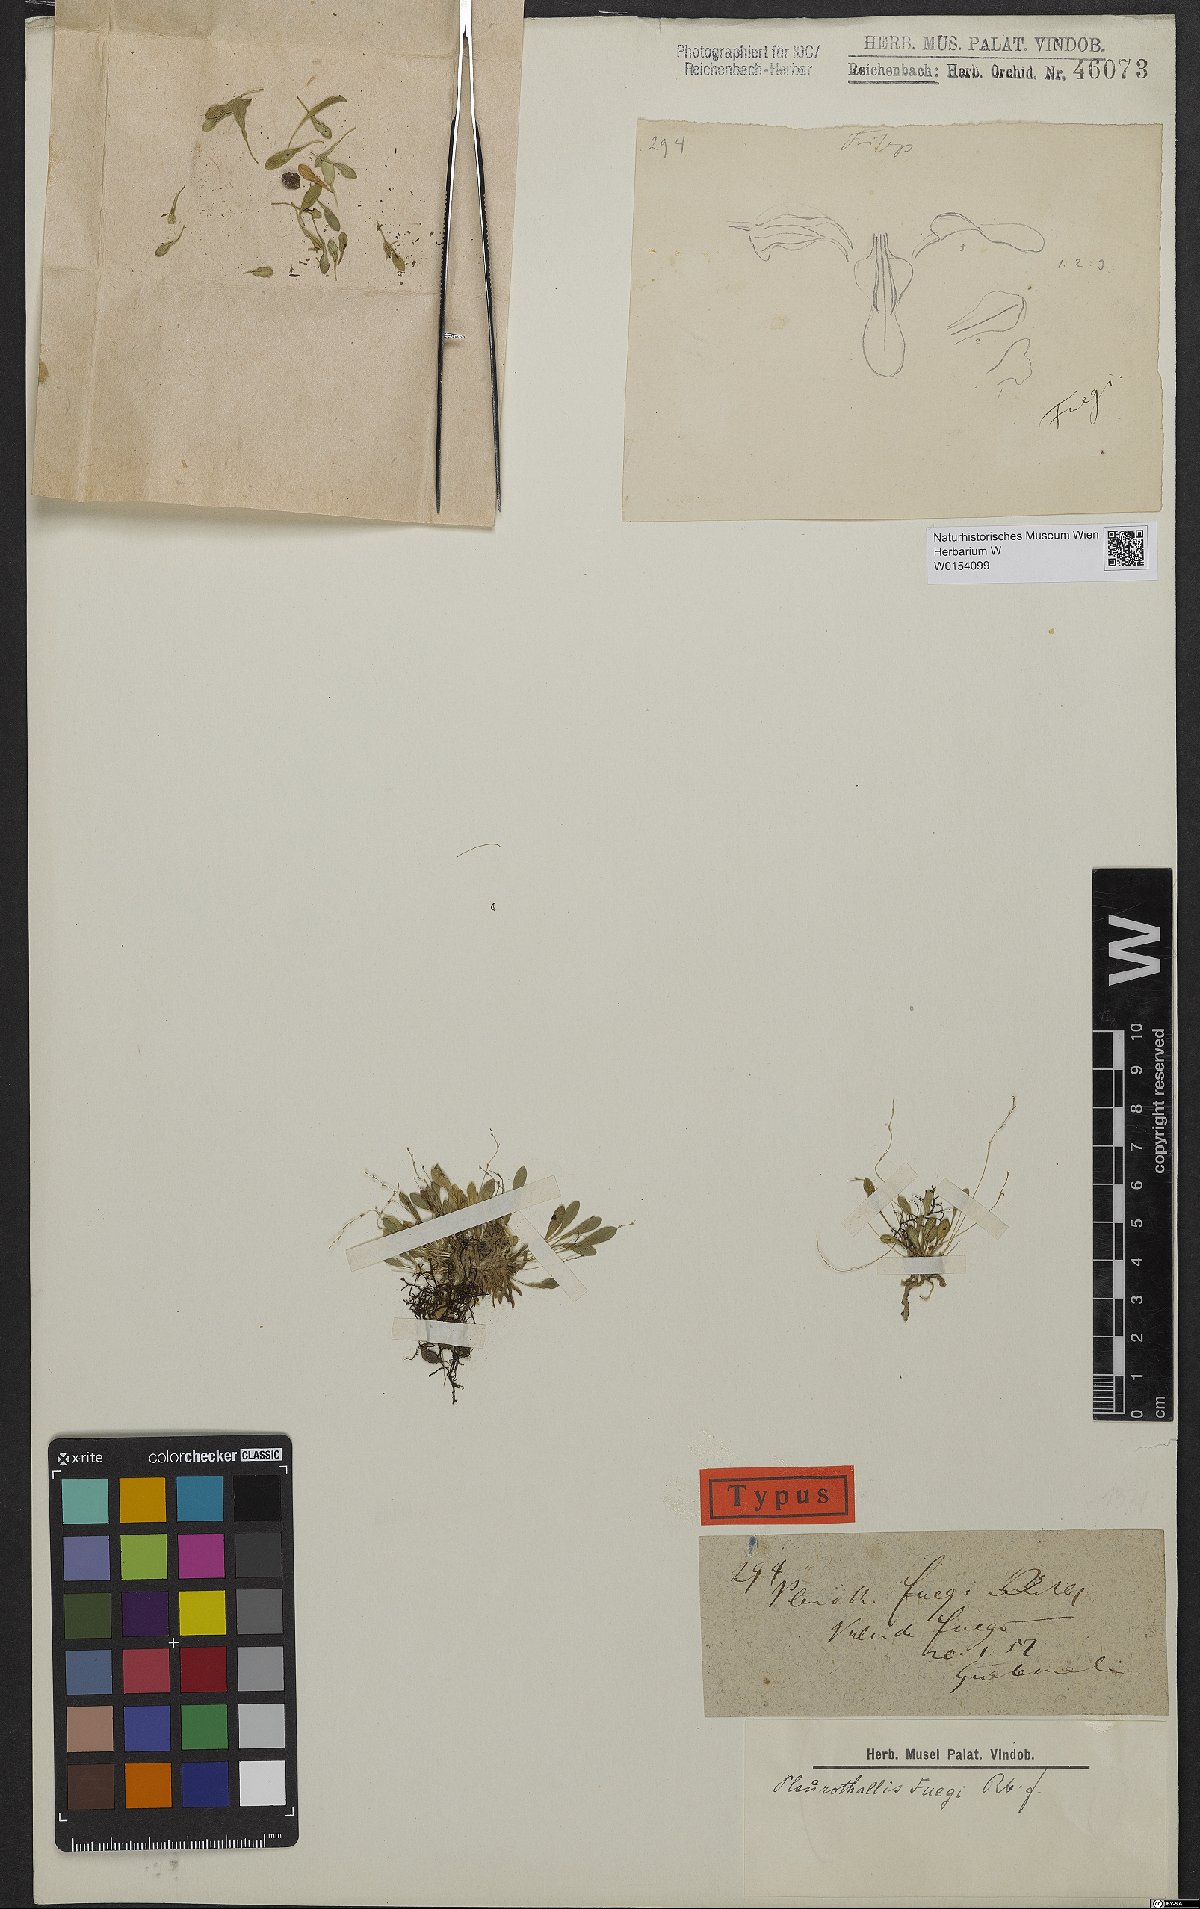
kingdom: Plantae
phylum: Tracheophyta
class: Liliopsida
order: Asparagales
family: Orchidaceae
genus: Specklinia
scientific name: Specklinia fuegi
